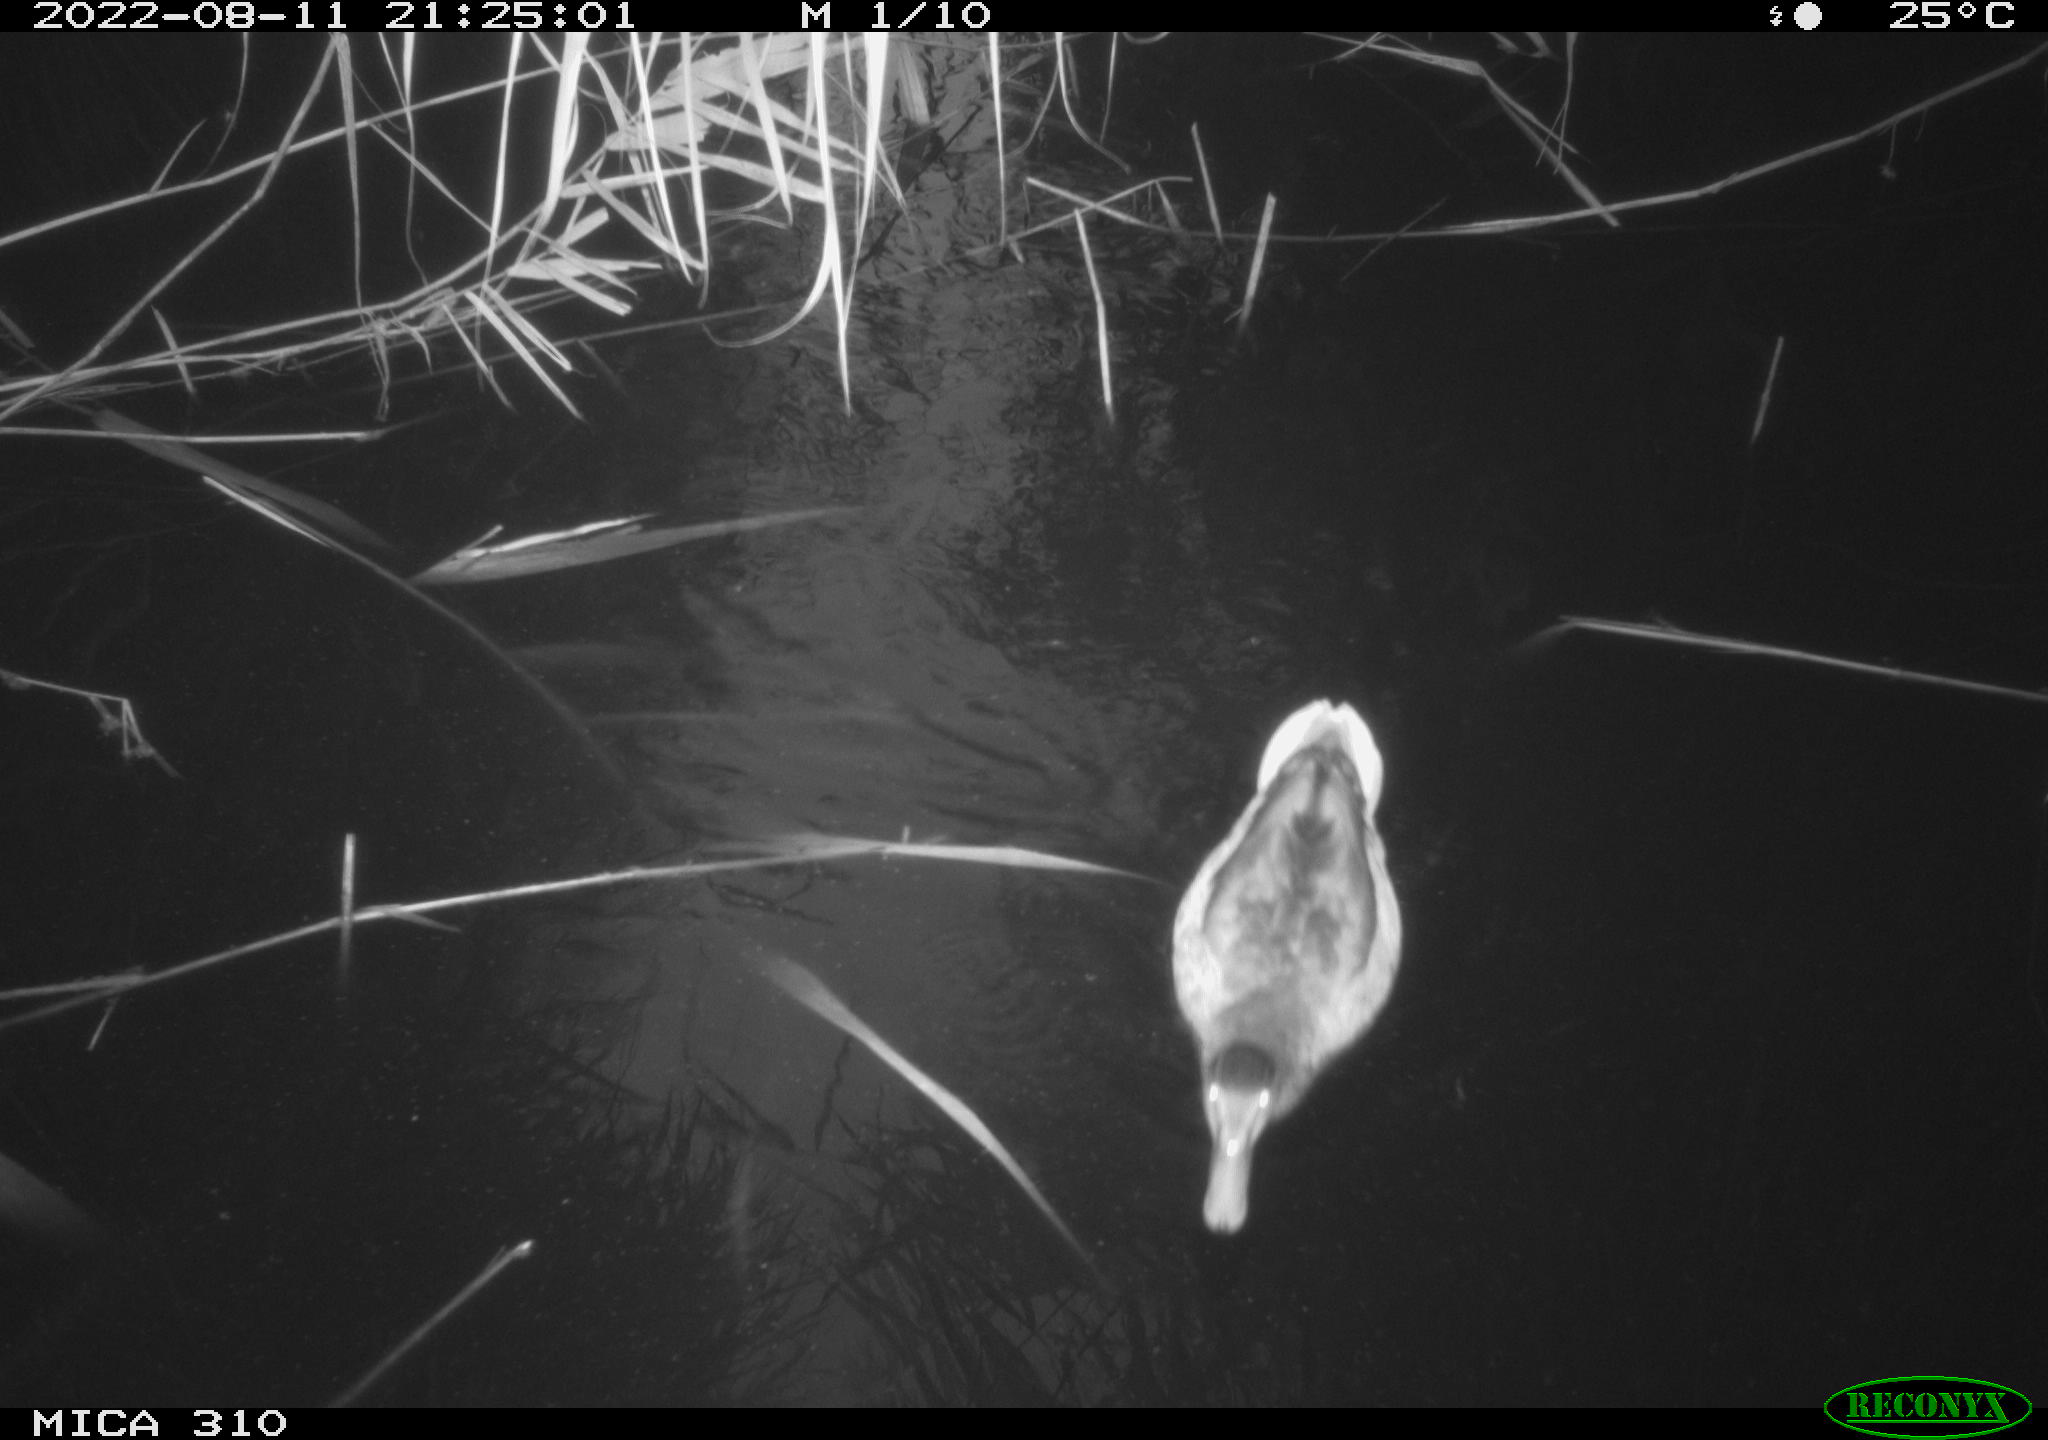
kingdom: Animalia
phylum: Chordata
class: Aves
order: Anseriformes
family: Anatidae
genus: Anas
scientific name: Anas platyrhynchos
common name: Mallard
